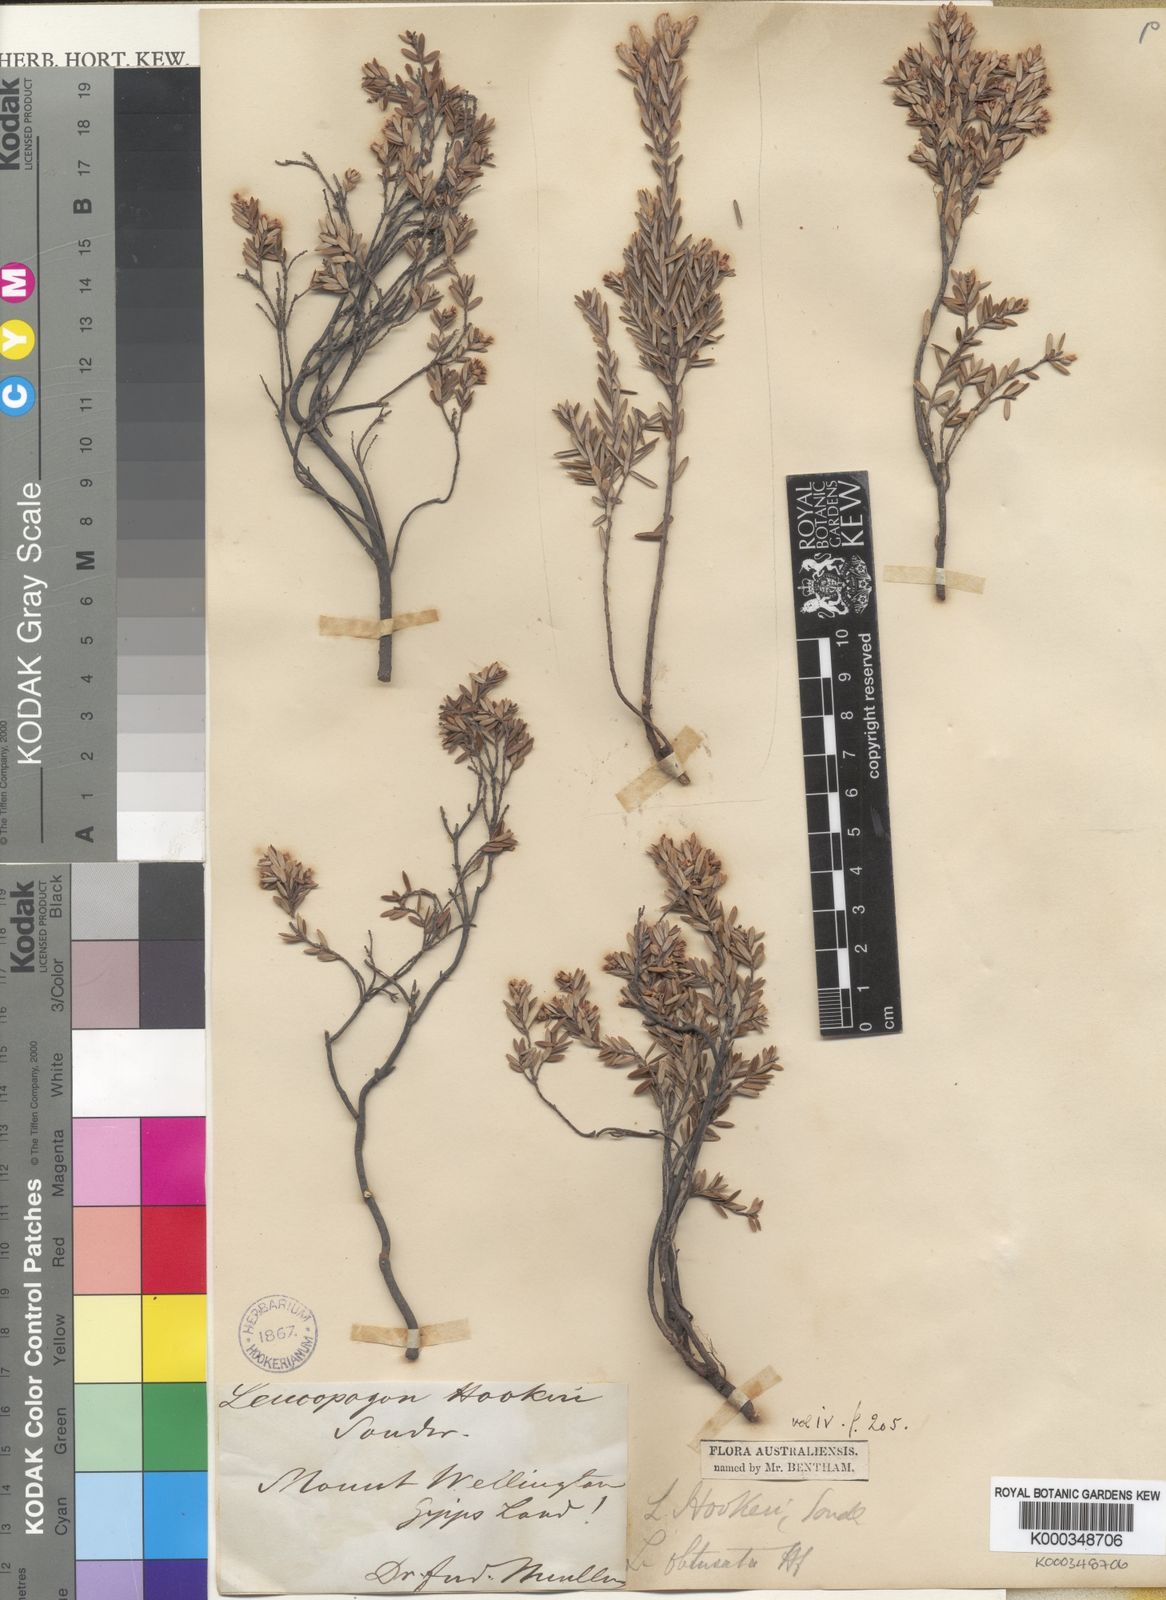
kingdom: Plantae
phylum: Tracheophyta
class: Magnoliopsida
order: Ericales
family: Ericaceae
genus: Acrothamnus
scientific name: Acrothamnus hookeri
